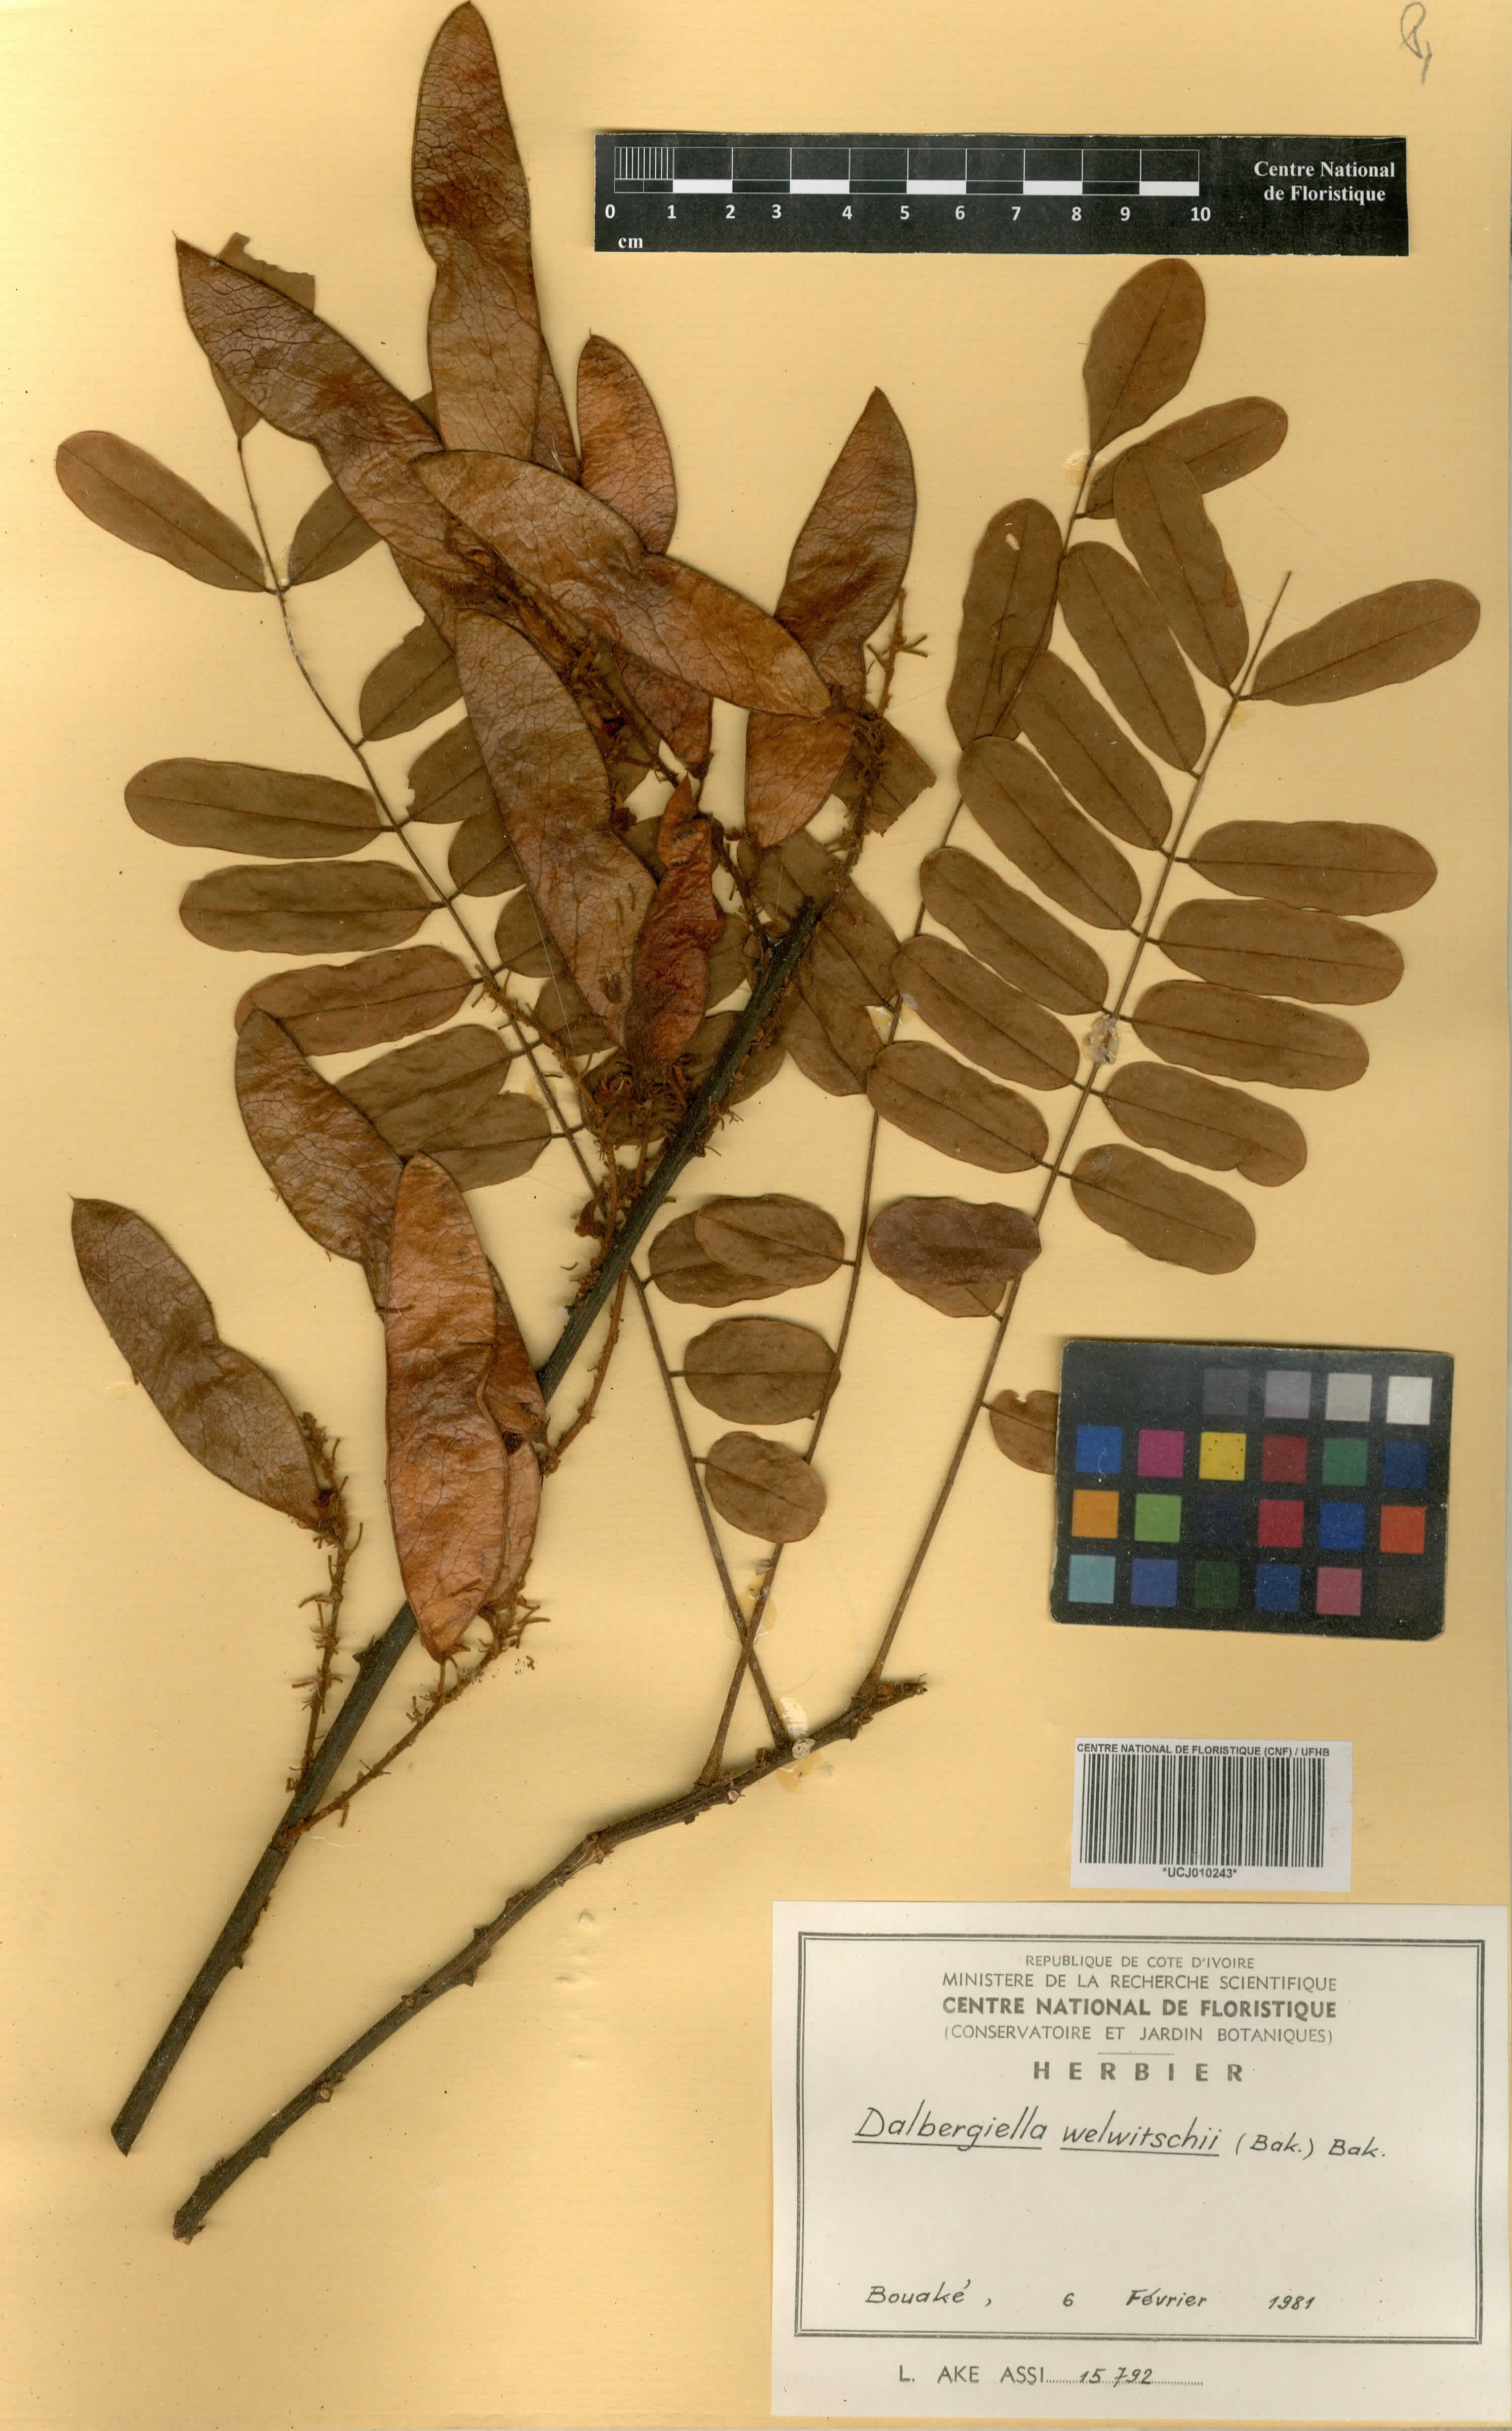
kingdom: Plantae
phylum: Tracheophyta
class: Magnoliopsida
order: Fabales
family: Fabaceae
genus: Dalbergiella
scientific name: Dalbergiella welwitschii
